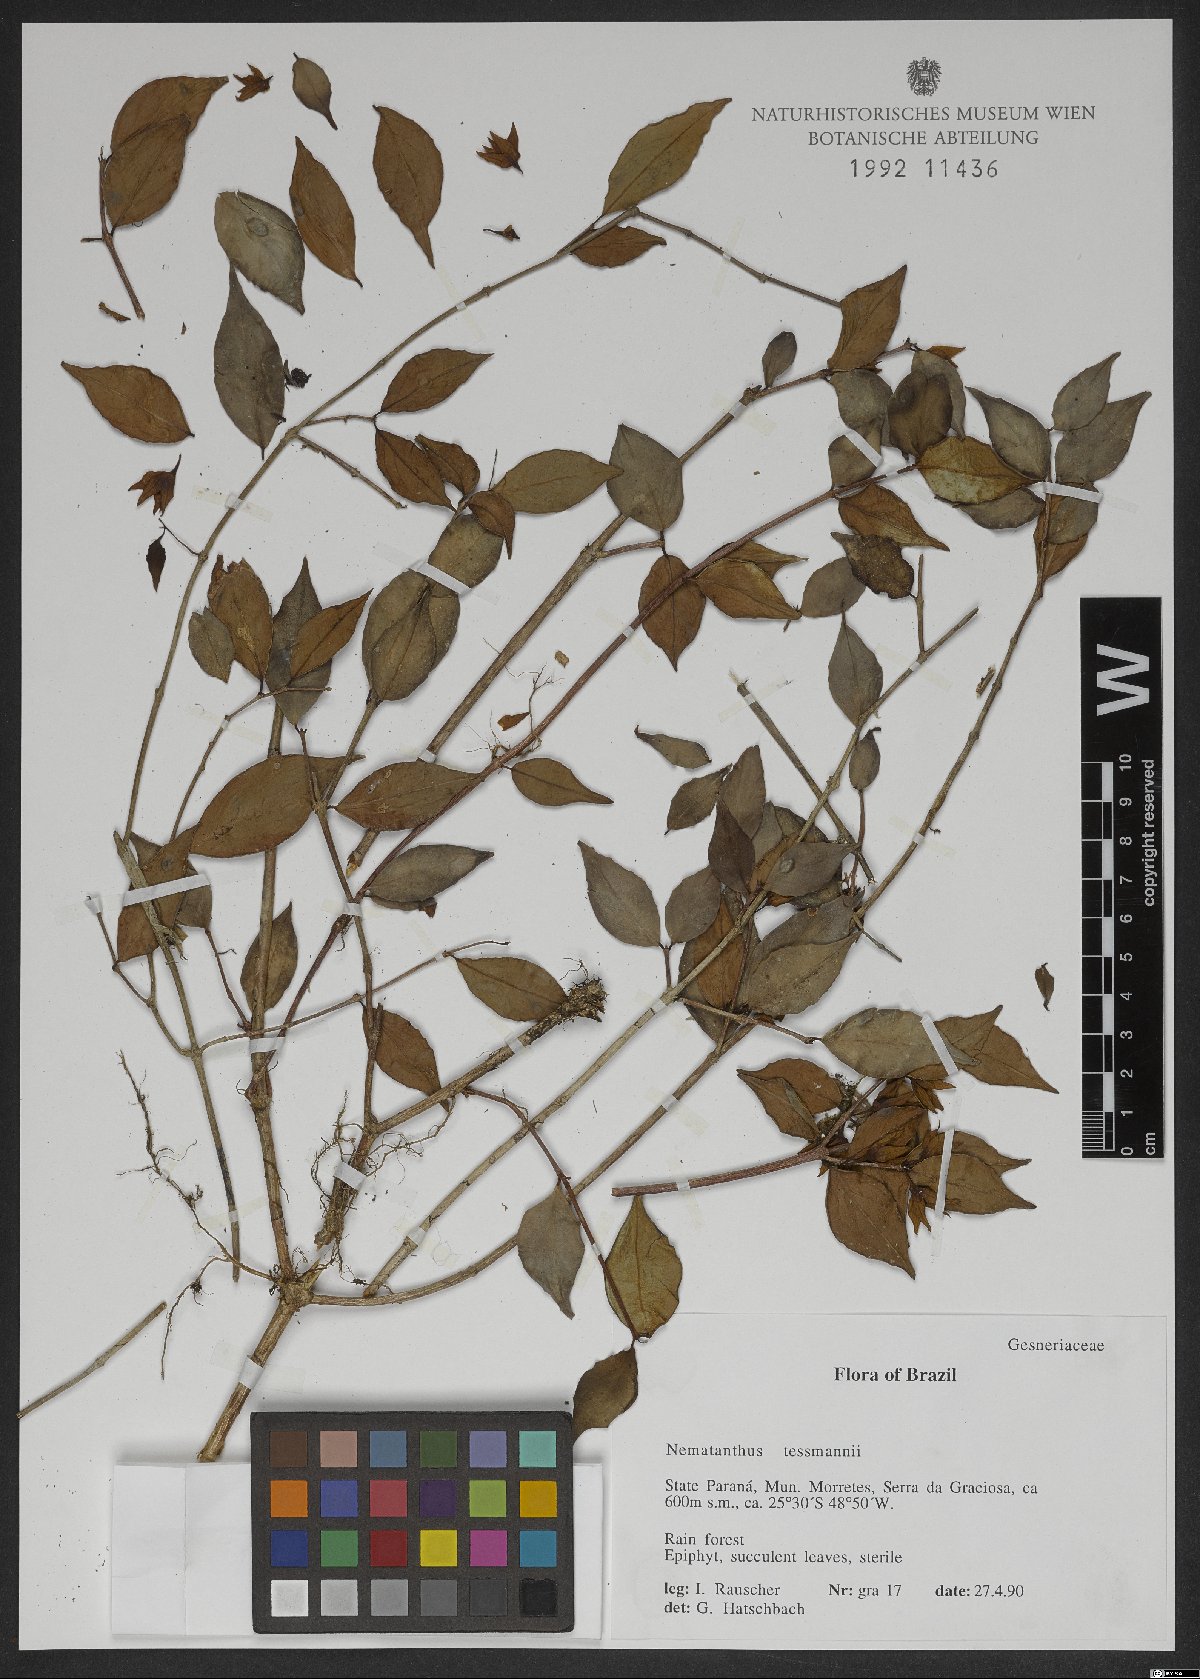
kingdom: Plantae
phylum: Tracheophyta
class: Magnoliopsida
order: Lamiales
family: Gesneriaceae
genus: Nematanthus
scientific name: Nematanthus tessmannii
